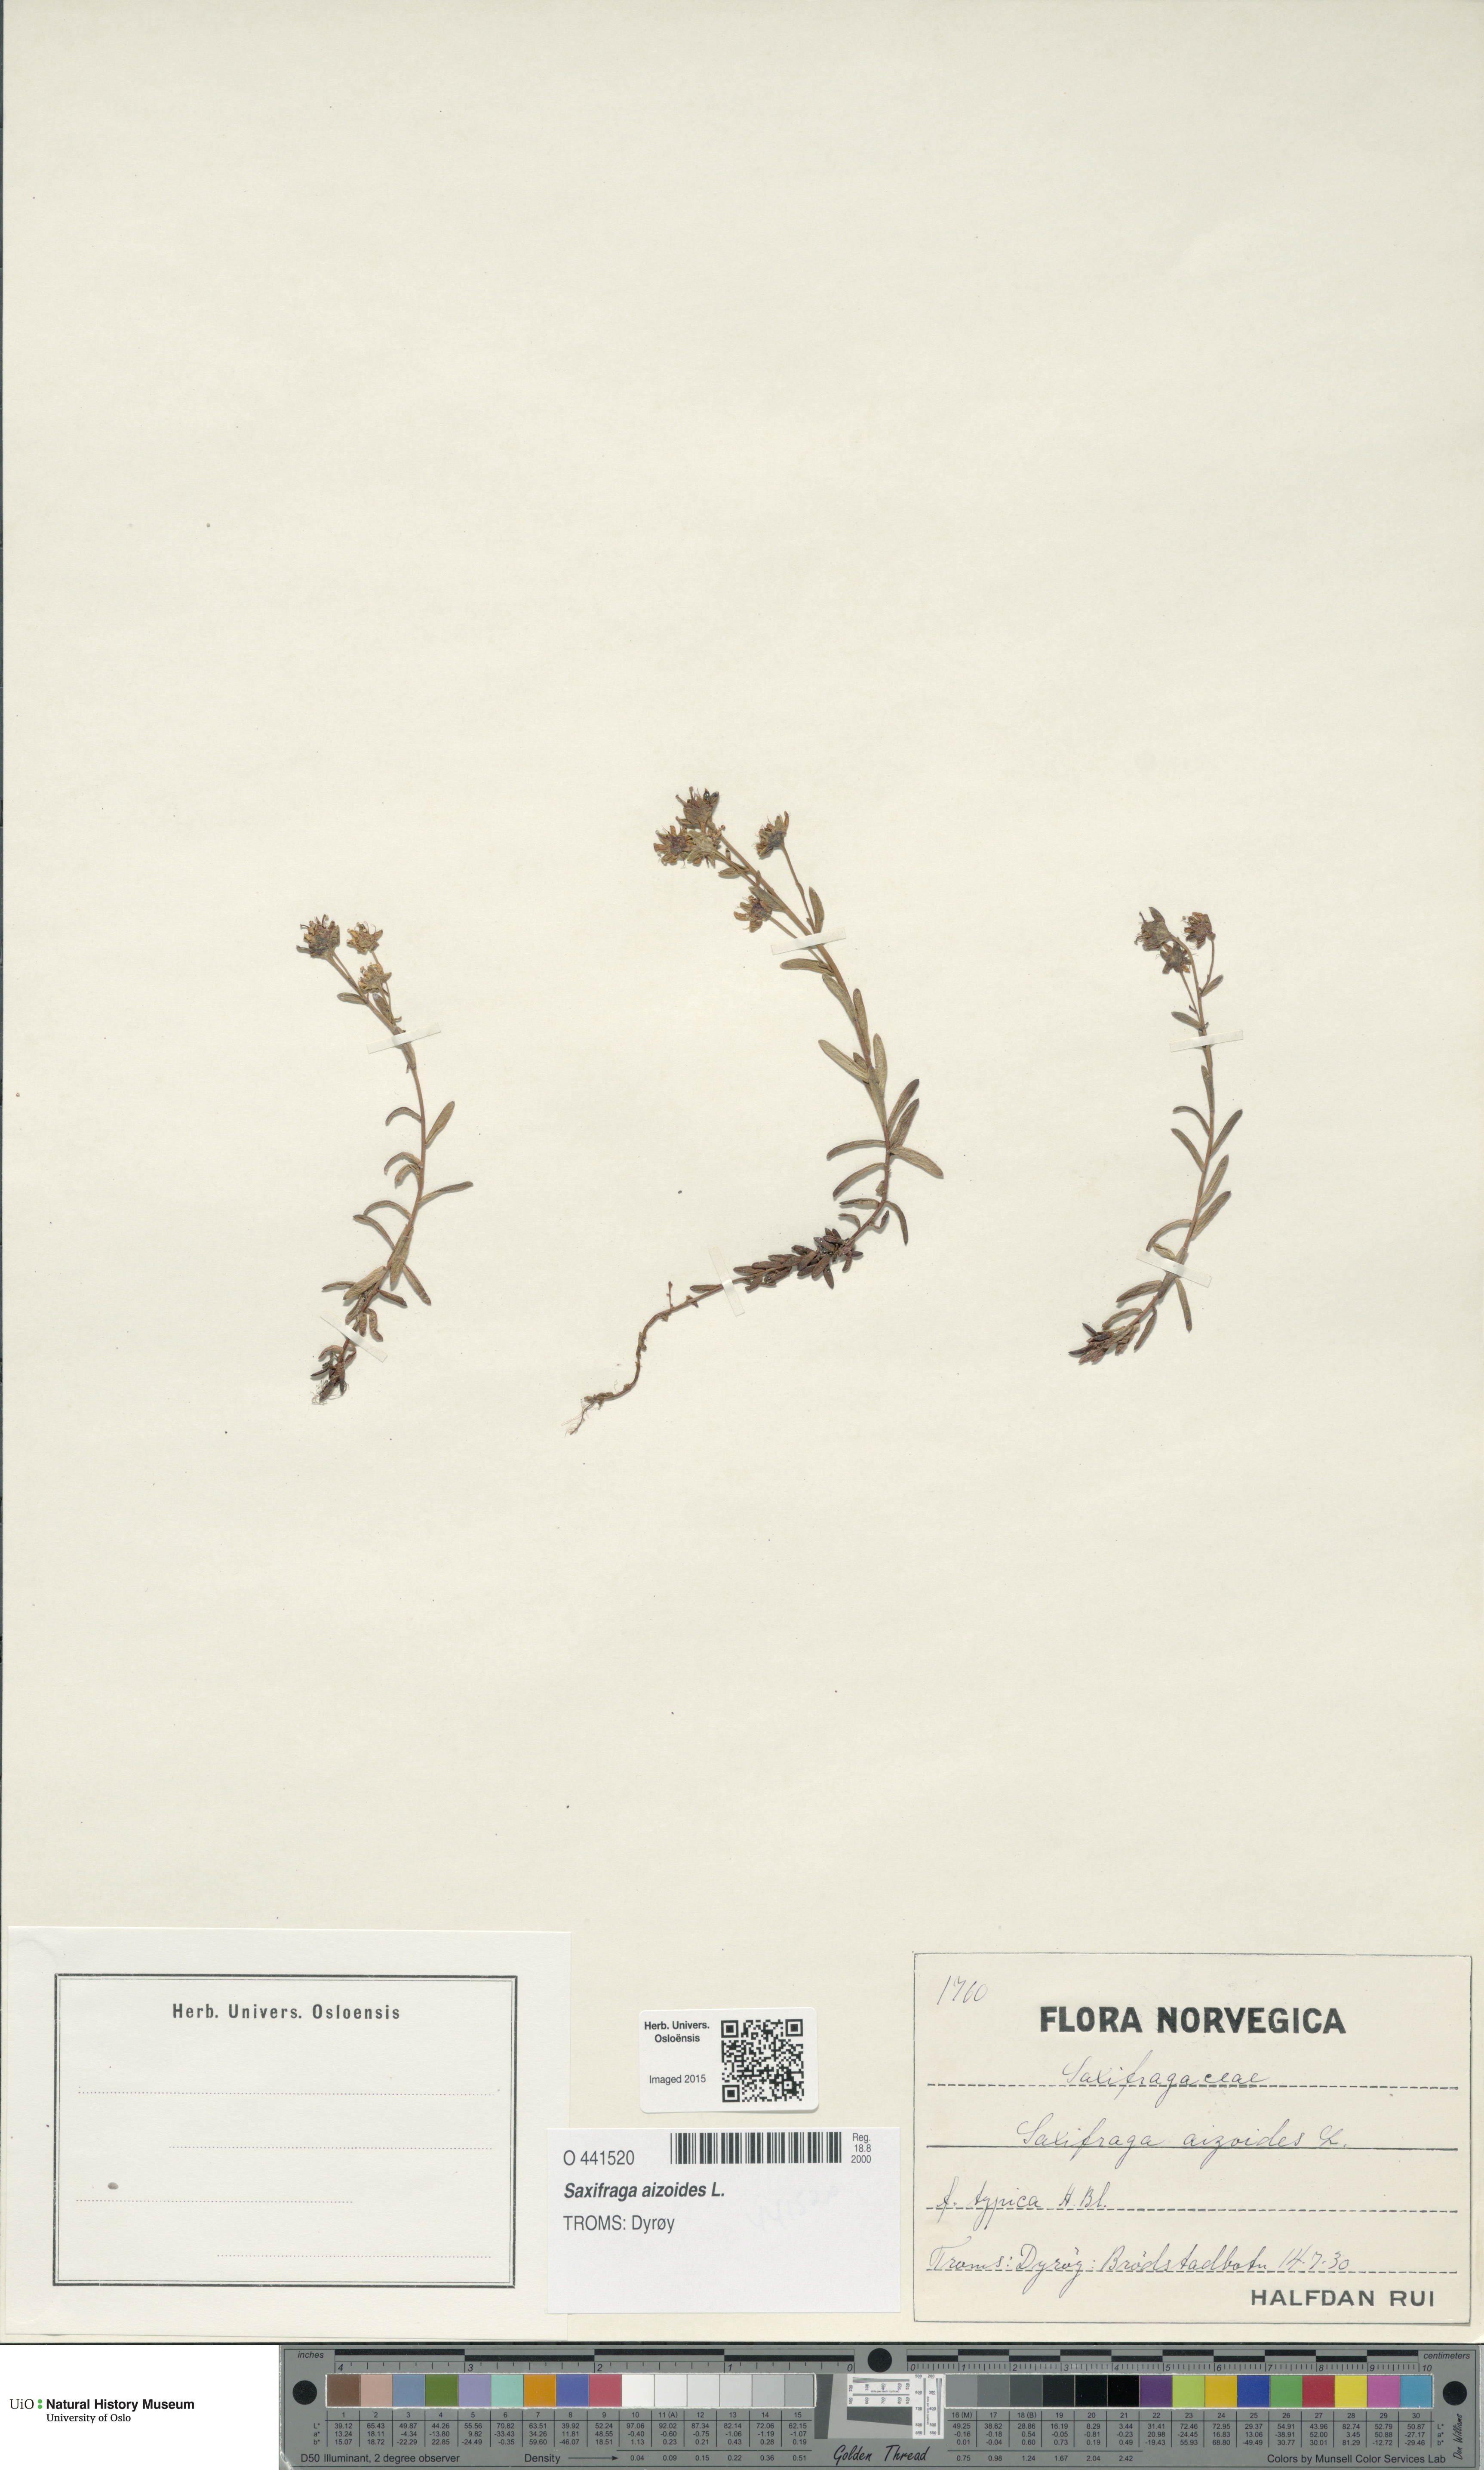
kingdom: Plantae
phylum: Tracheophyta
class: Magnoliopsida
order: Saxifragales
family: Saxifragaceae
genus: Saxifraga
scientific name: Saxifraga aizoides
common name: Yellow mountain saxifrage
